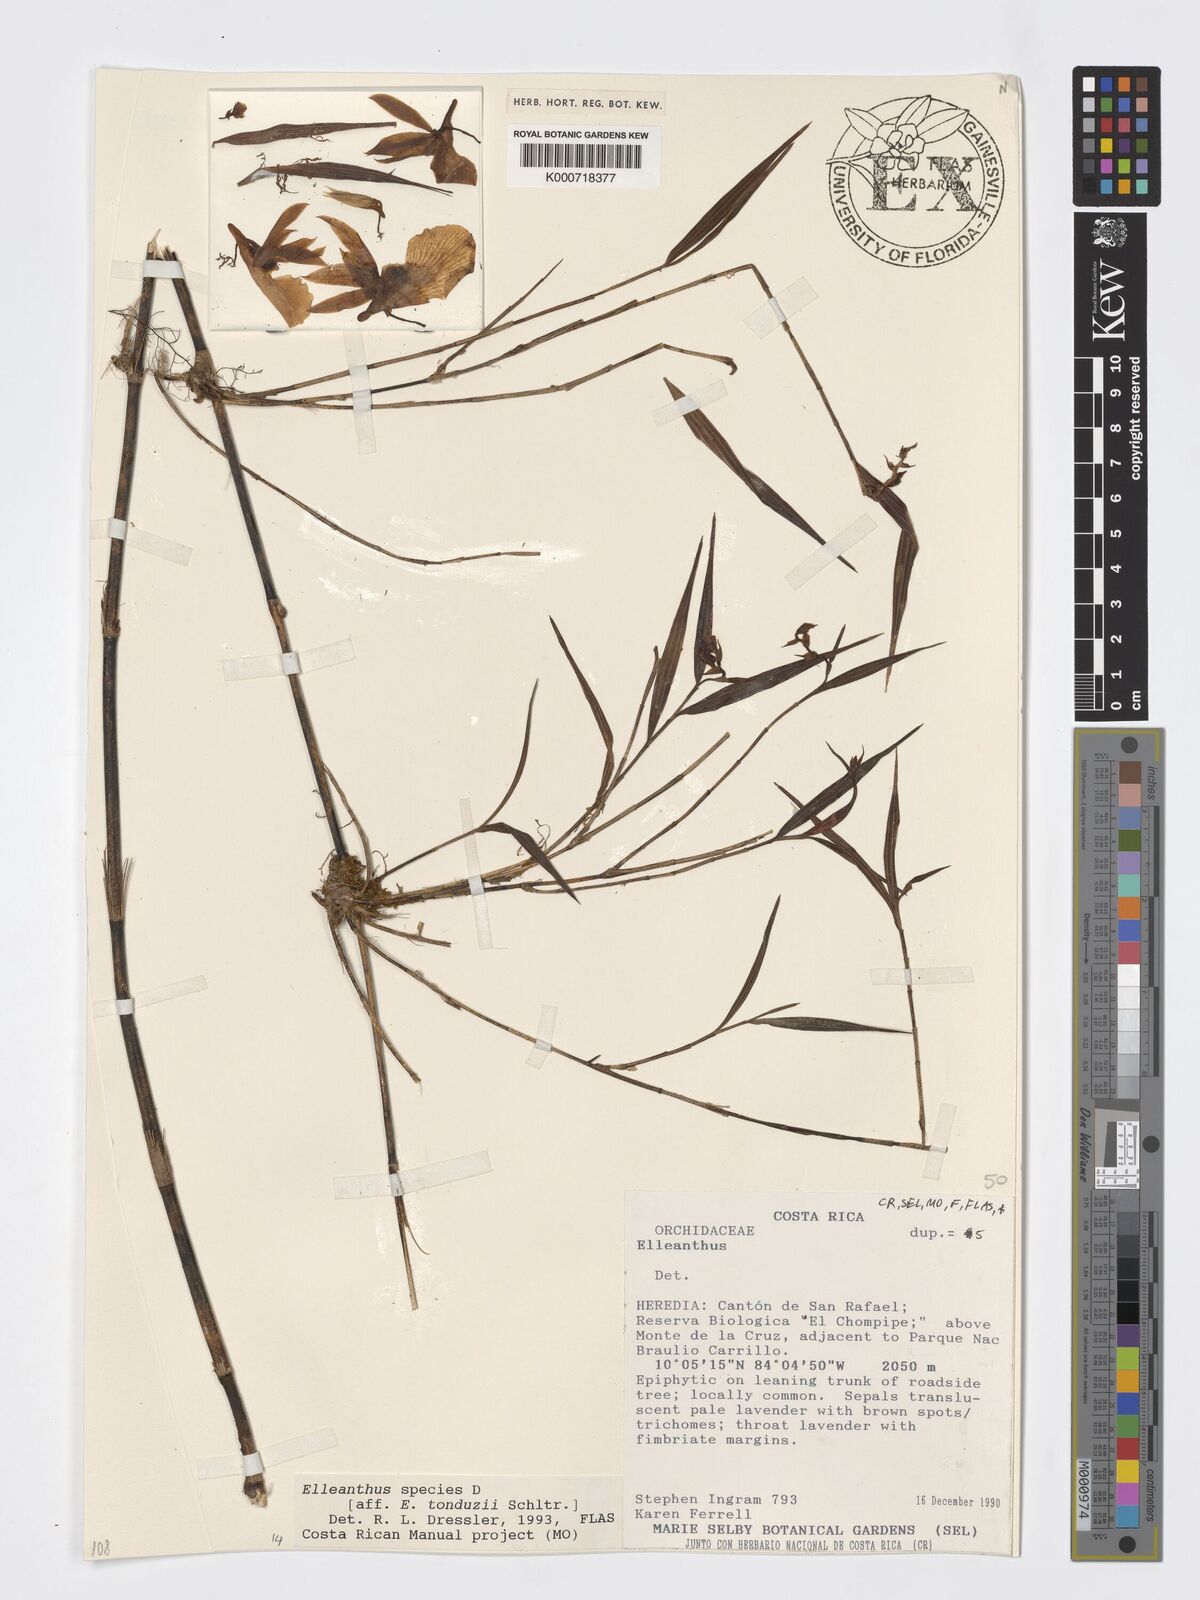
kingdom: Plantae
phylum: Tracheophyta
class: Liliopsida
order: Asparagales
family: Orchidaceae
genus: Elleanthus
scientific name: Elleanthus
